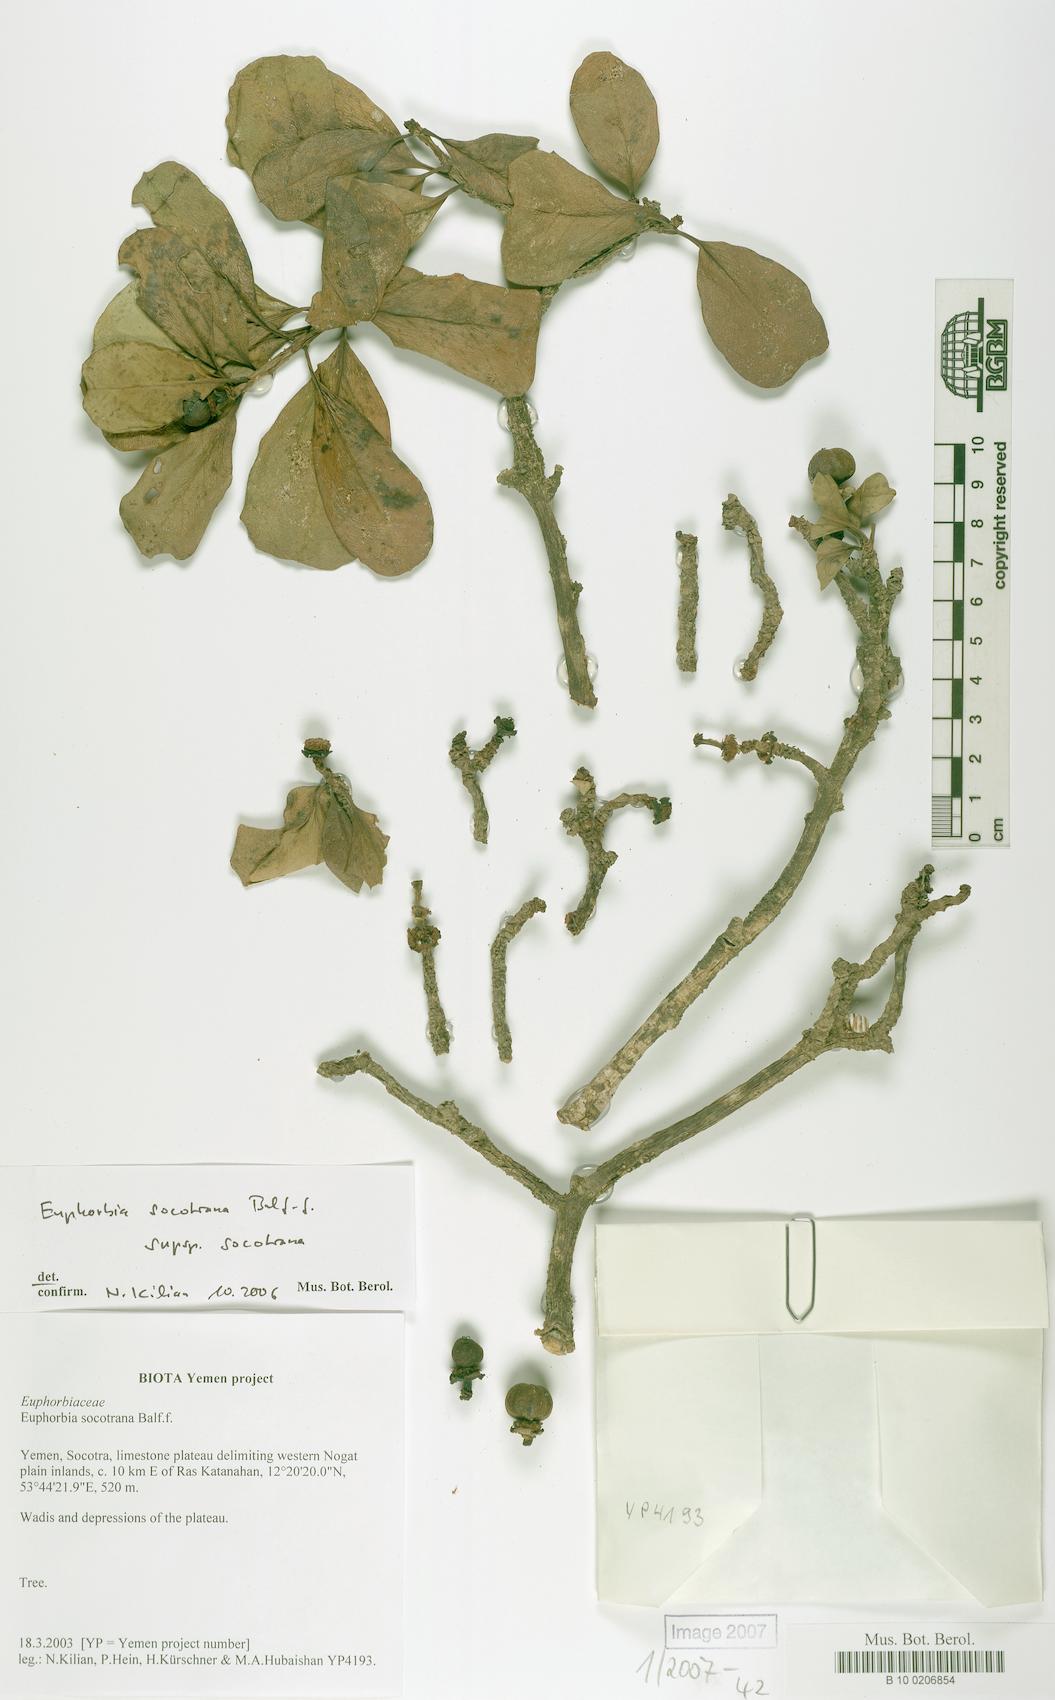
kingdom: Plantae
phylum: Tracheophyta
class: Magnoliopsida
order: Malpighiales
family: Euphorbiaceae
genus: Euphorbia
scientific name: Euphorbia socotrana
